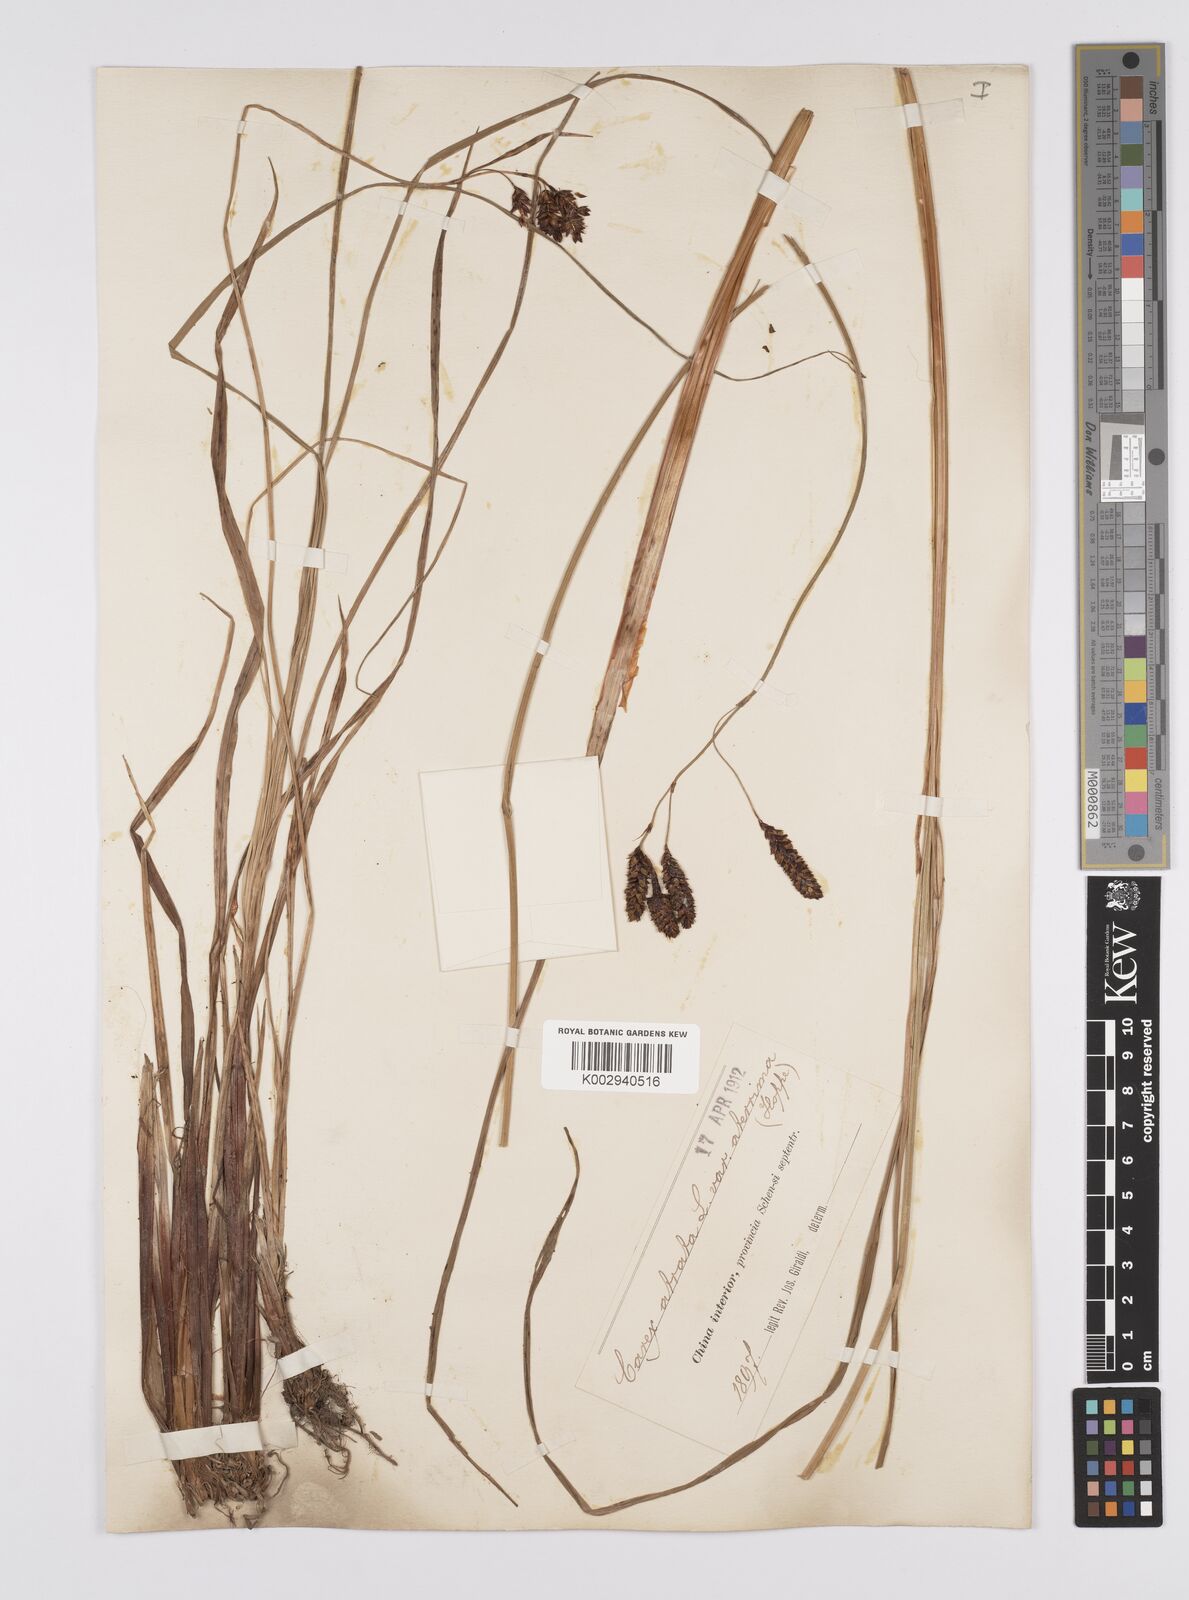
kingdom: Plantae
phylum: Tracheophyta
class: Liliopsida
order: Poales
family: Cyperaceae
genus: Carex
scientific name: Carex atrata
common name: Black alpine sedge
